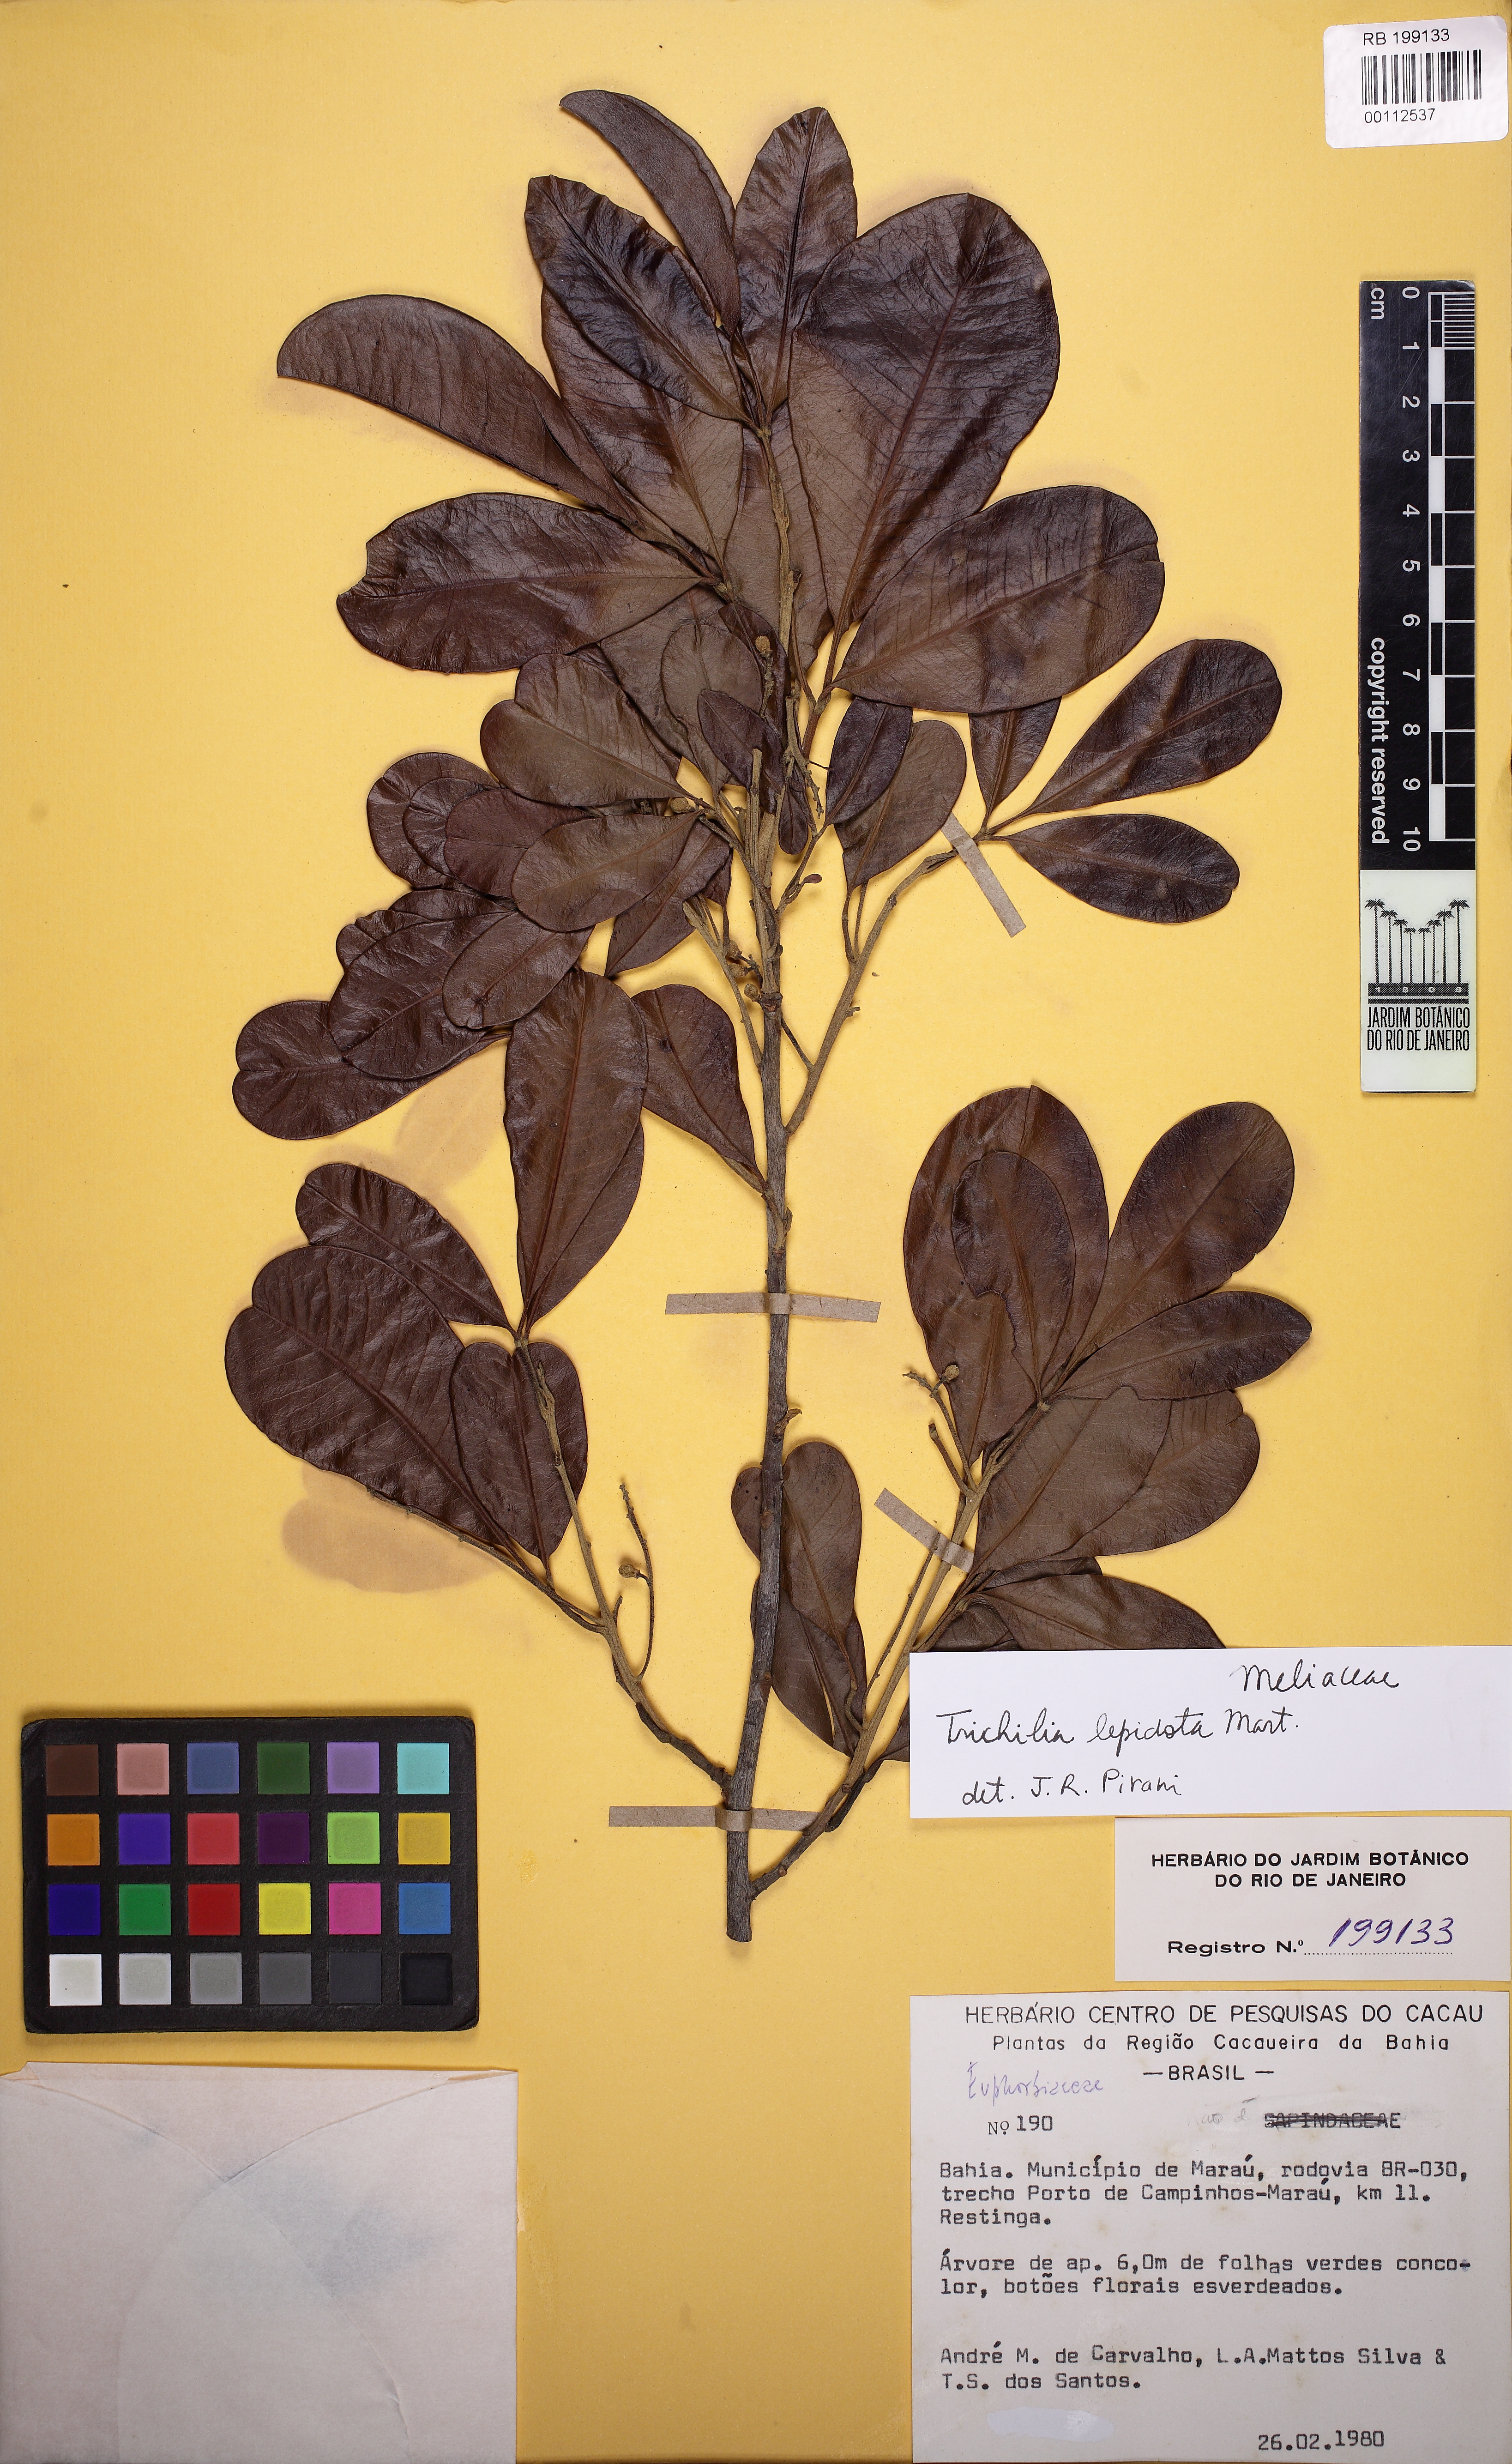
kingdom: Plantae
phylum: Tracheophyta
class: Magnoliopsida
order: Sapindales
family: Meliaceae
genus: Trichilia
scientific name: Trichilia lepidota
